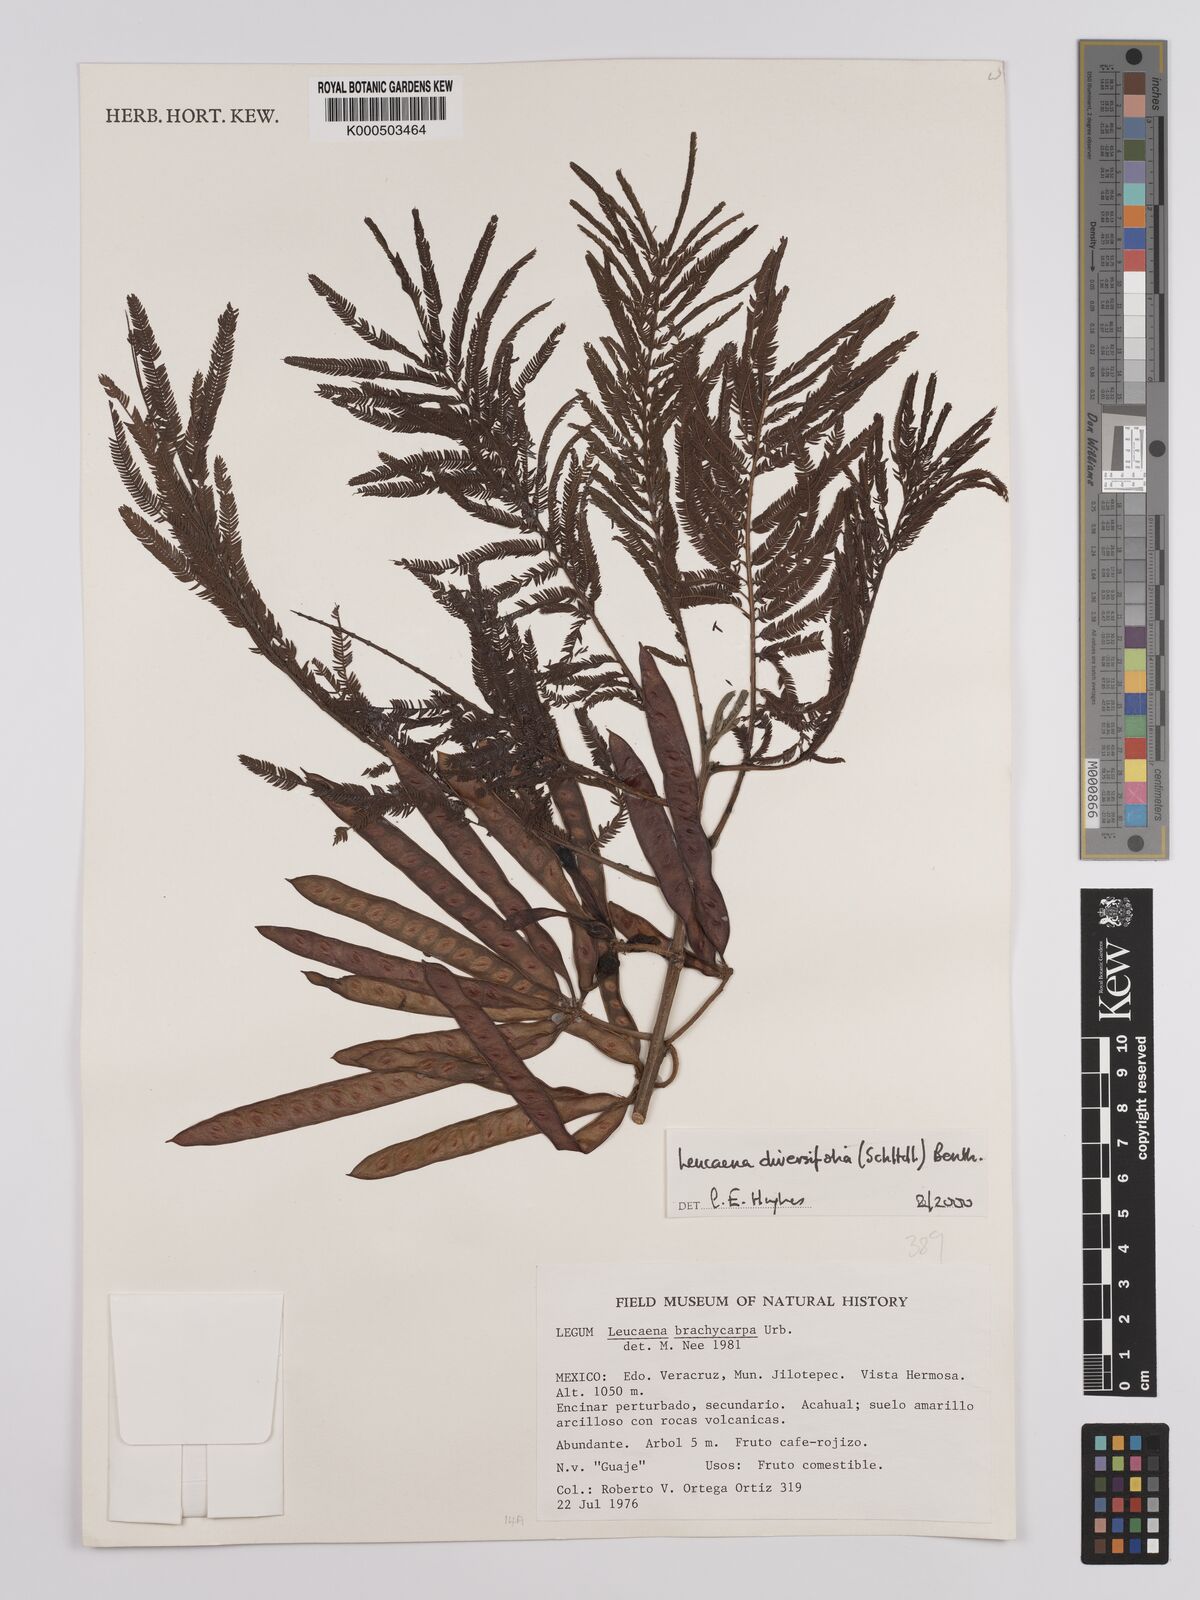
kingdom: Plantae
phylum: Tracheophyta
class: Magnoliopsida
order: Fabales
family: Fabaceae
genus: Leucaena
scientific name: Leucaena diversifolia
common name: Red leucaena
